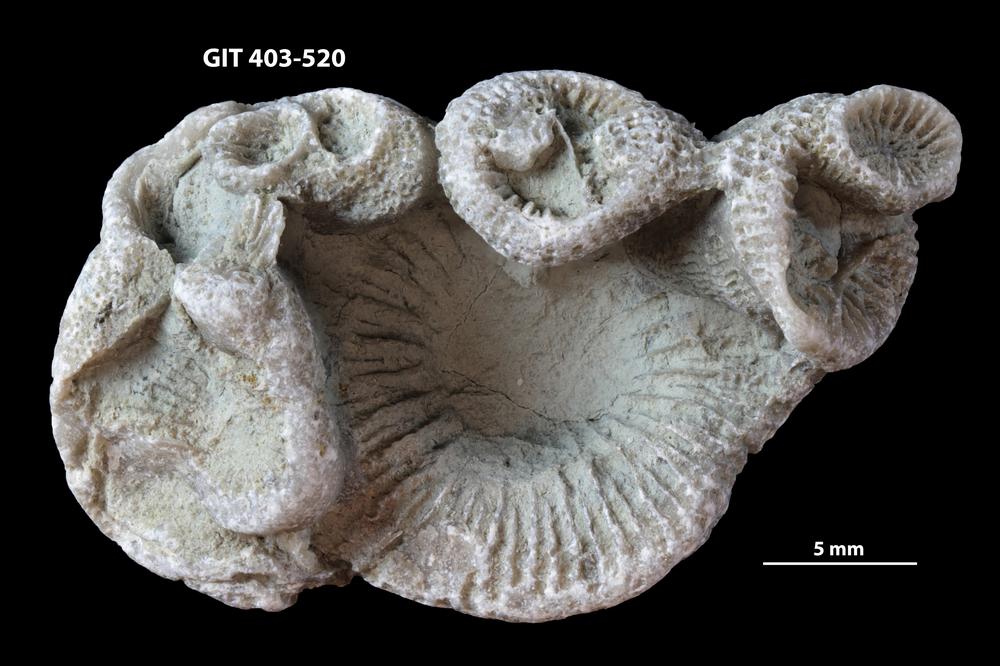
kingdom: Animalia
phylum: Cnidaria
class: Anthozoa
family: Entelophyllidae
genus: Entelophyllum
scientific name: Entelophyllum
